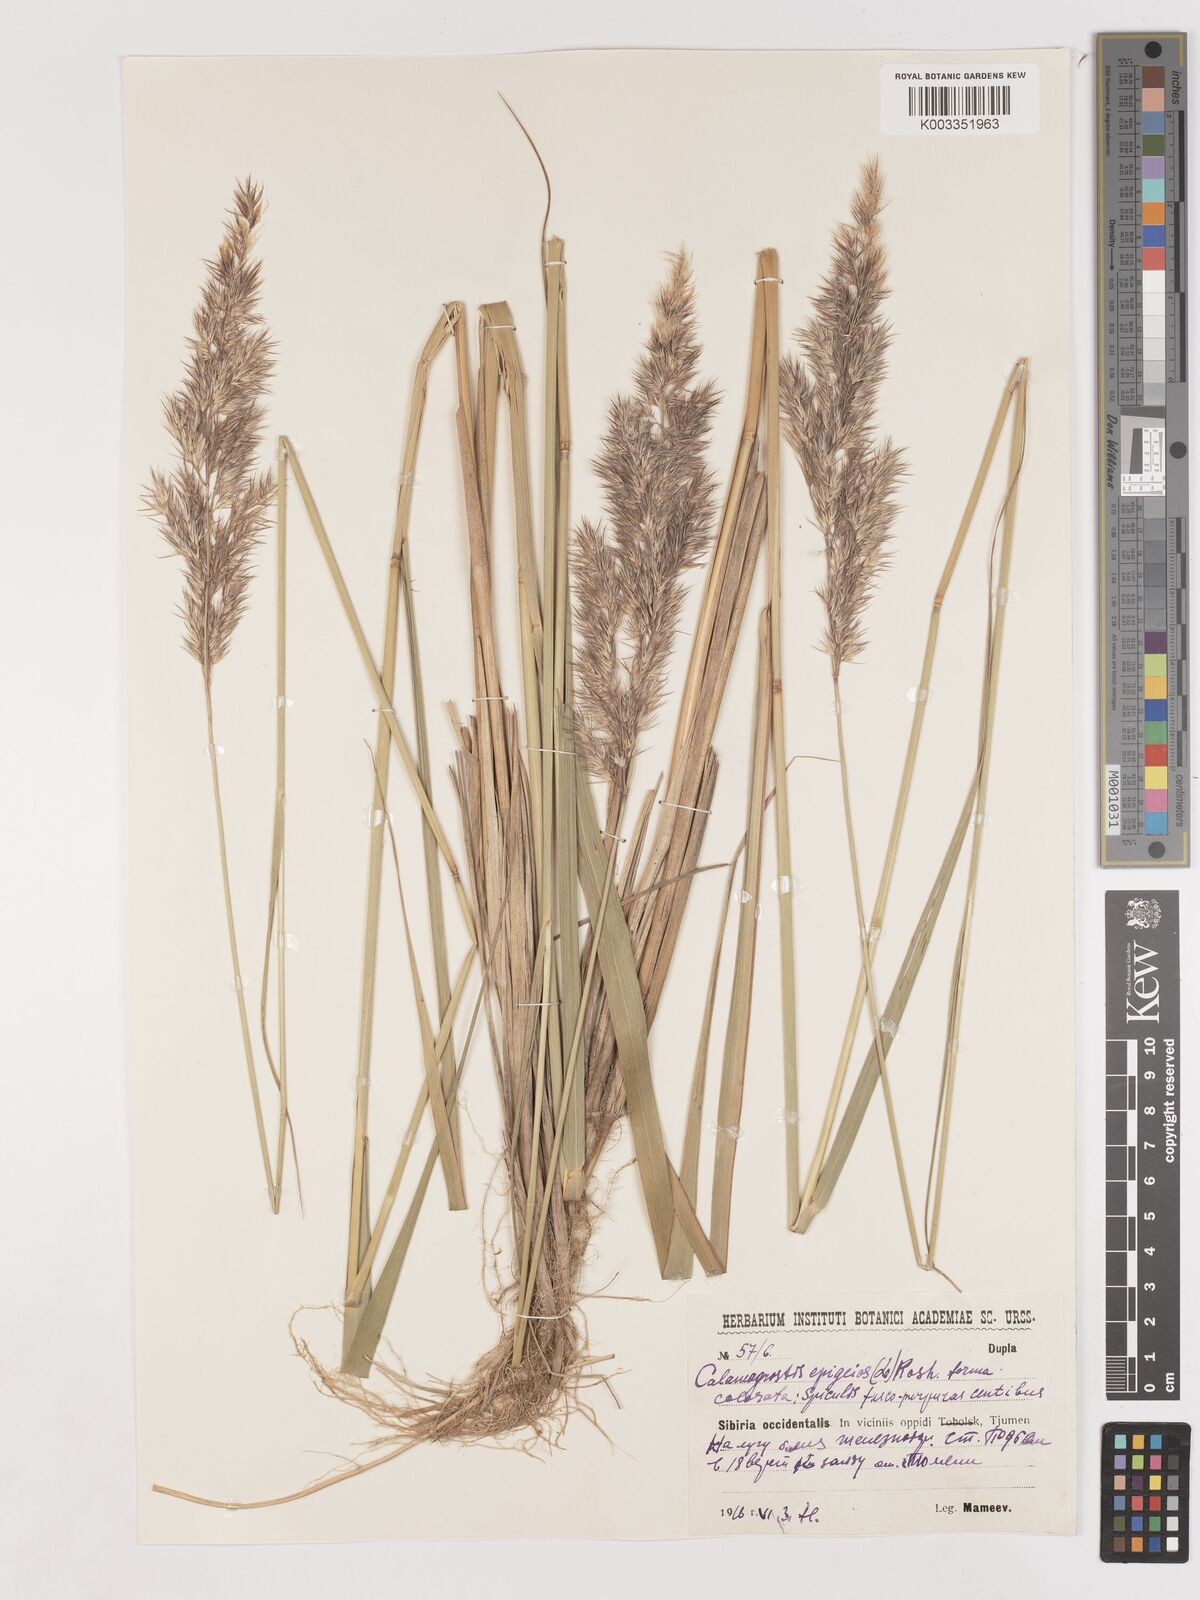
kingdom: Plantae
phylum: Tracheophyta
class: Liliopsida
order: Poales
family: Poaceae
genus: Calamagrostis
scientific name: Calamagrostis epigejos
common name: Wood small-reed
